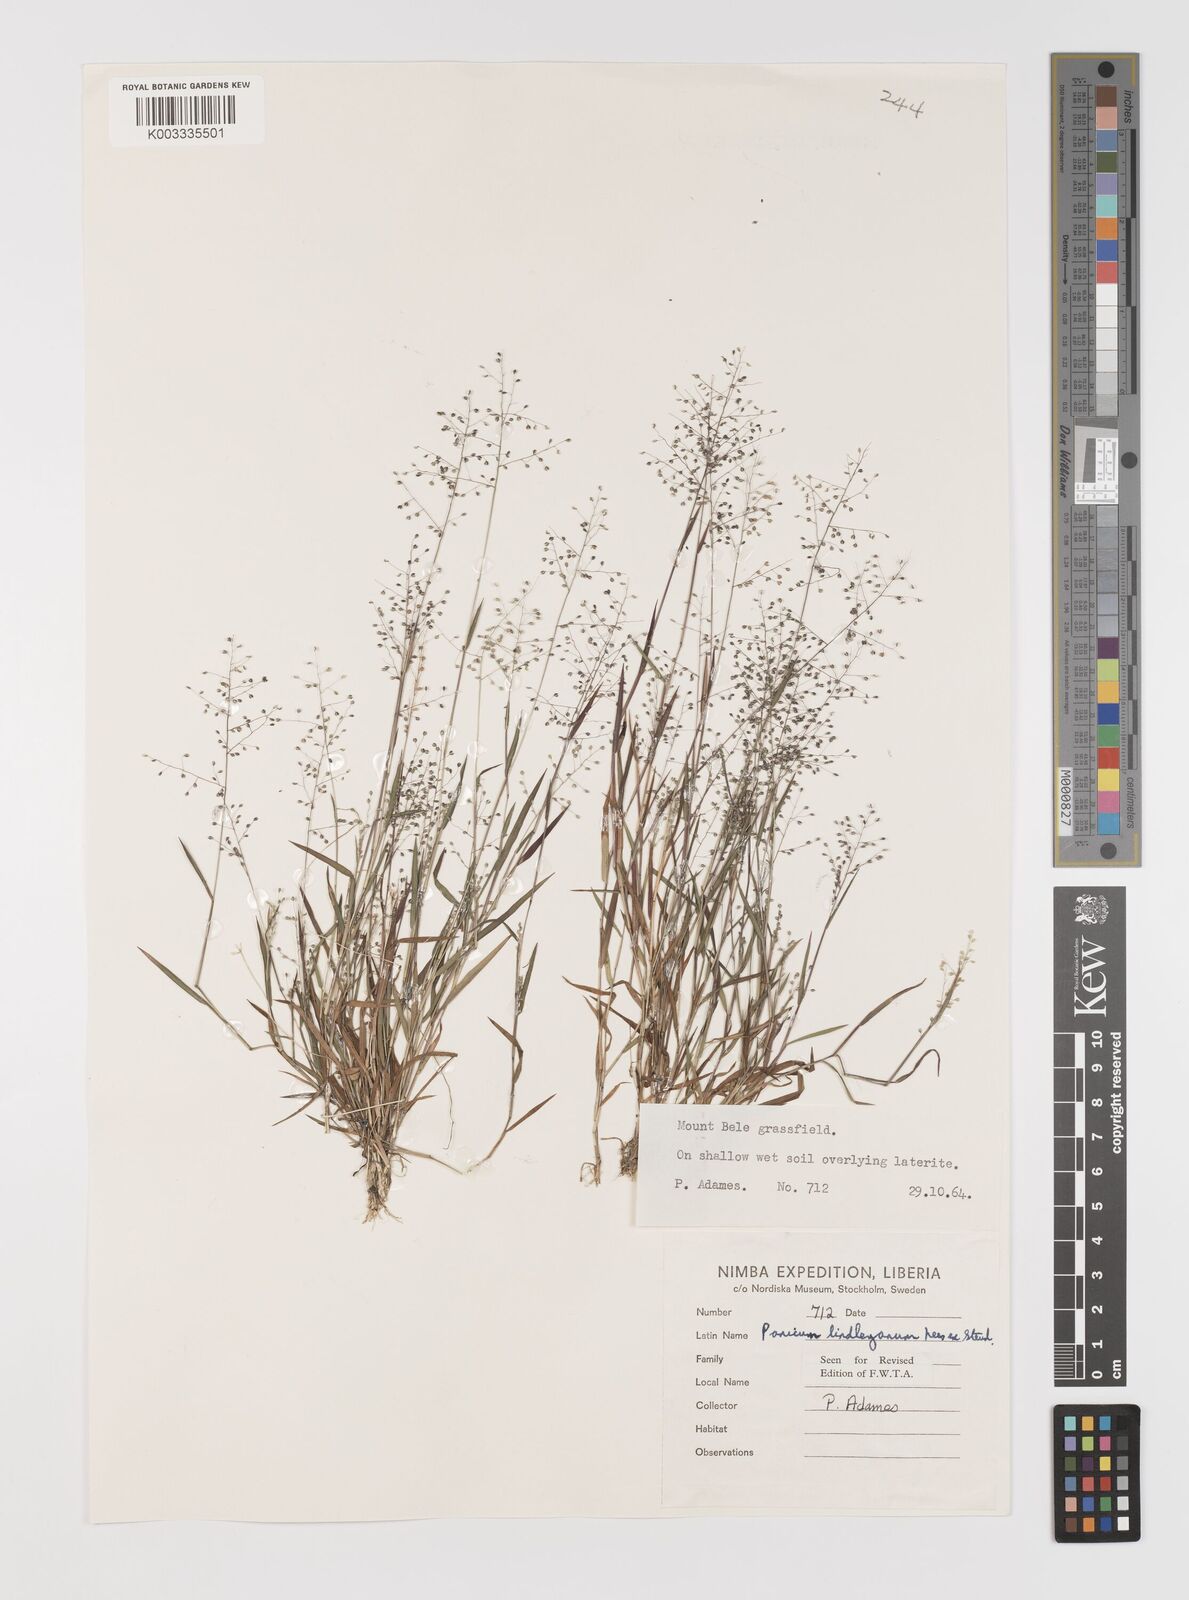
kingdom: Plantae
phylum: Tracheophyta
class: Liliopsida
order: Poales
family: Poaceae
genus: Trichanthecium
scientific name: Trichanthecium tenellum
